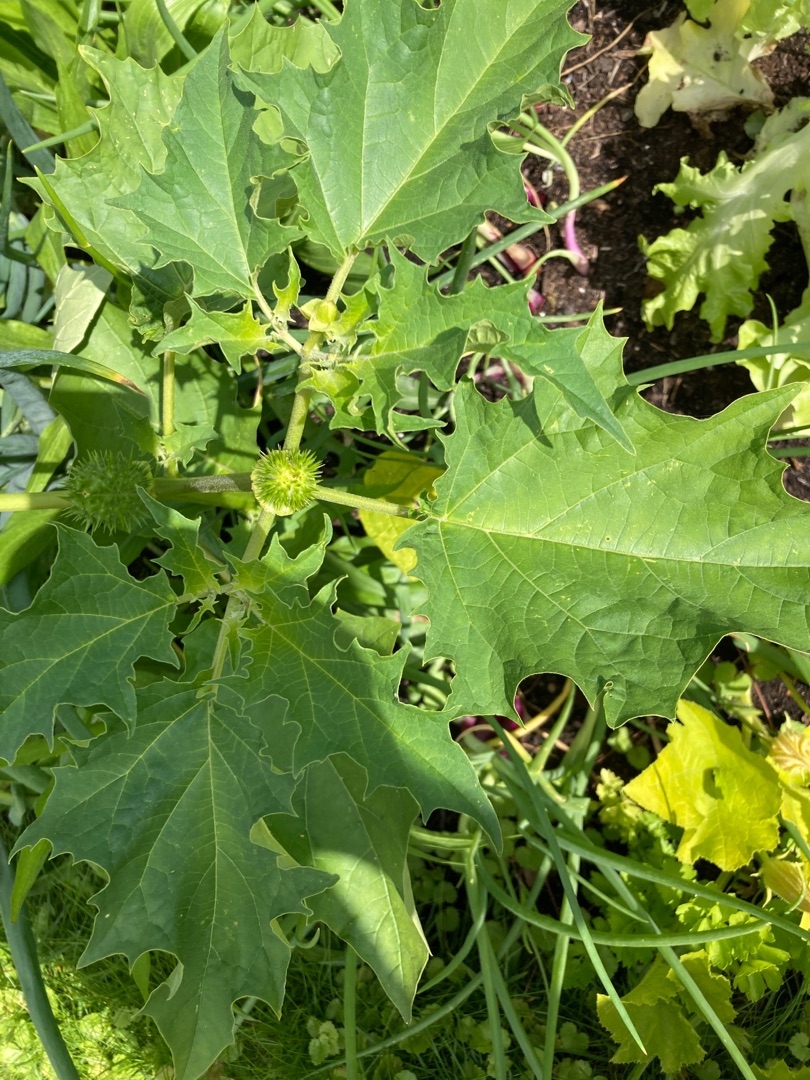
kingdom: Plantae
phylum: Tracheophyta
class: Magnoliopsida
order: Solanales
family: Solanaceae
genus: Datura
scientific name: Datura stramonium
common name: Pigæble
